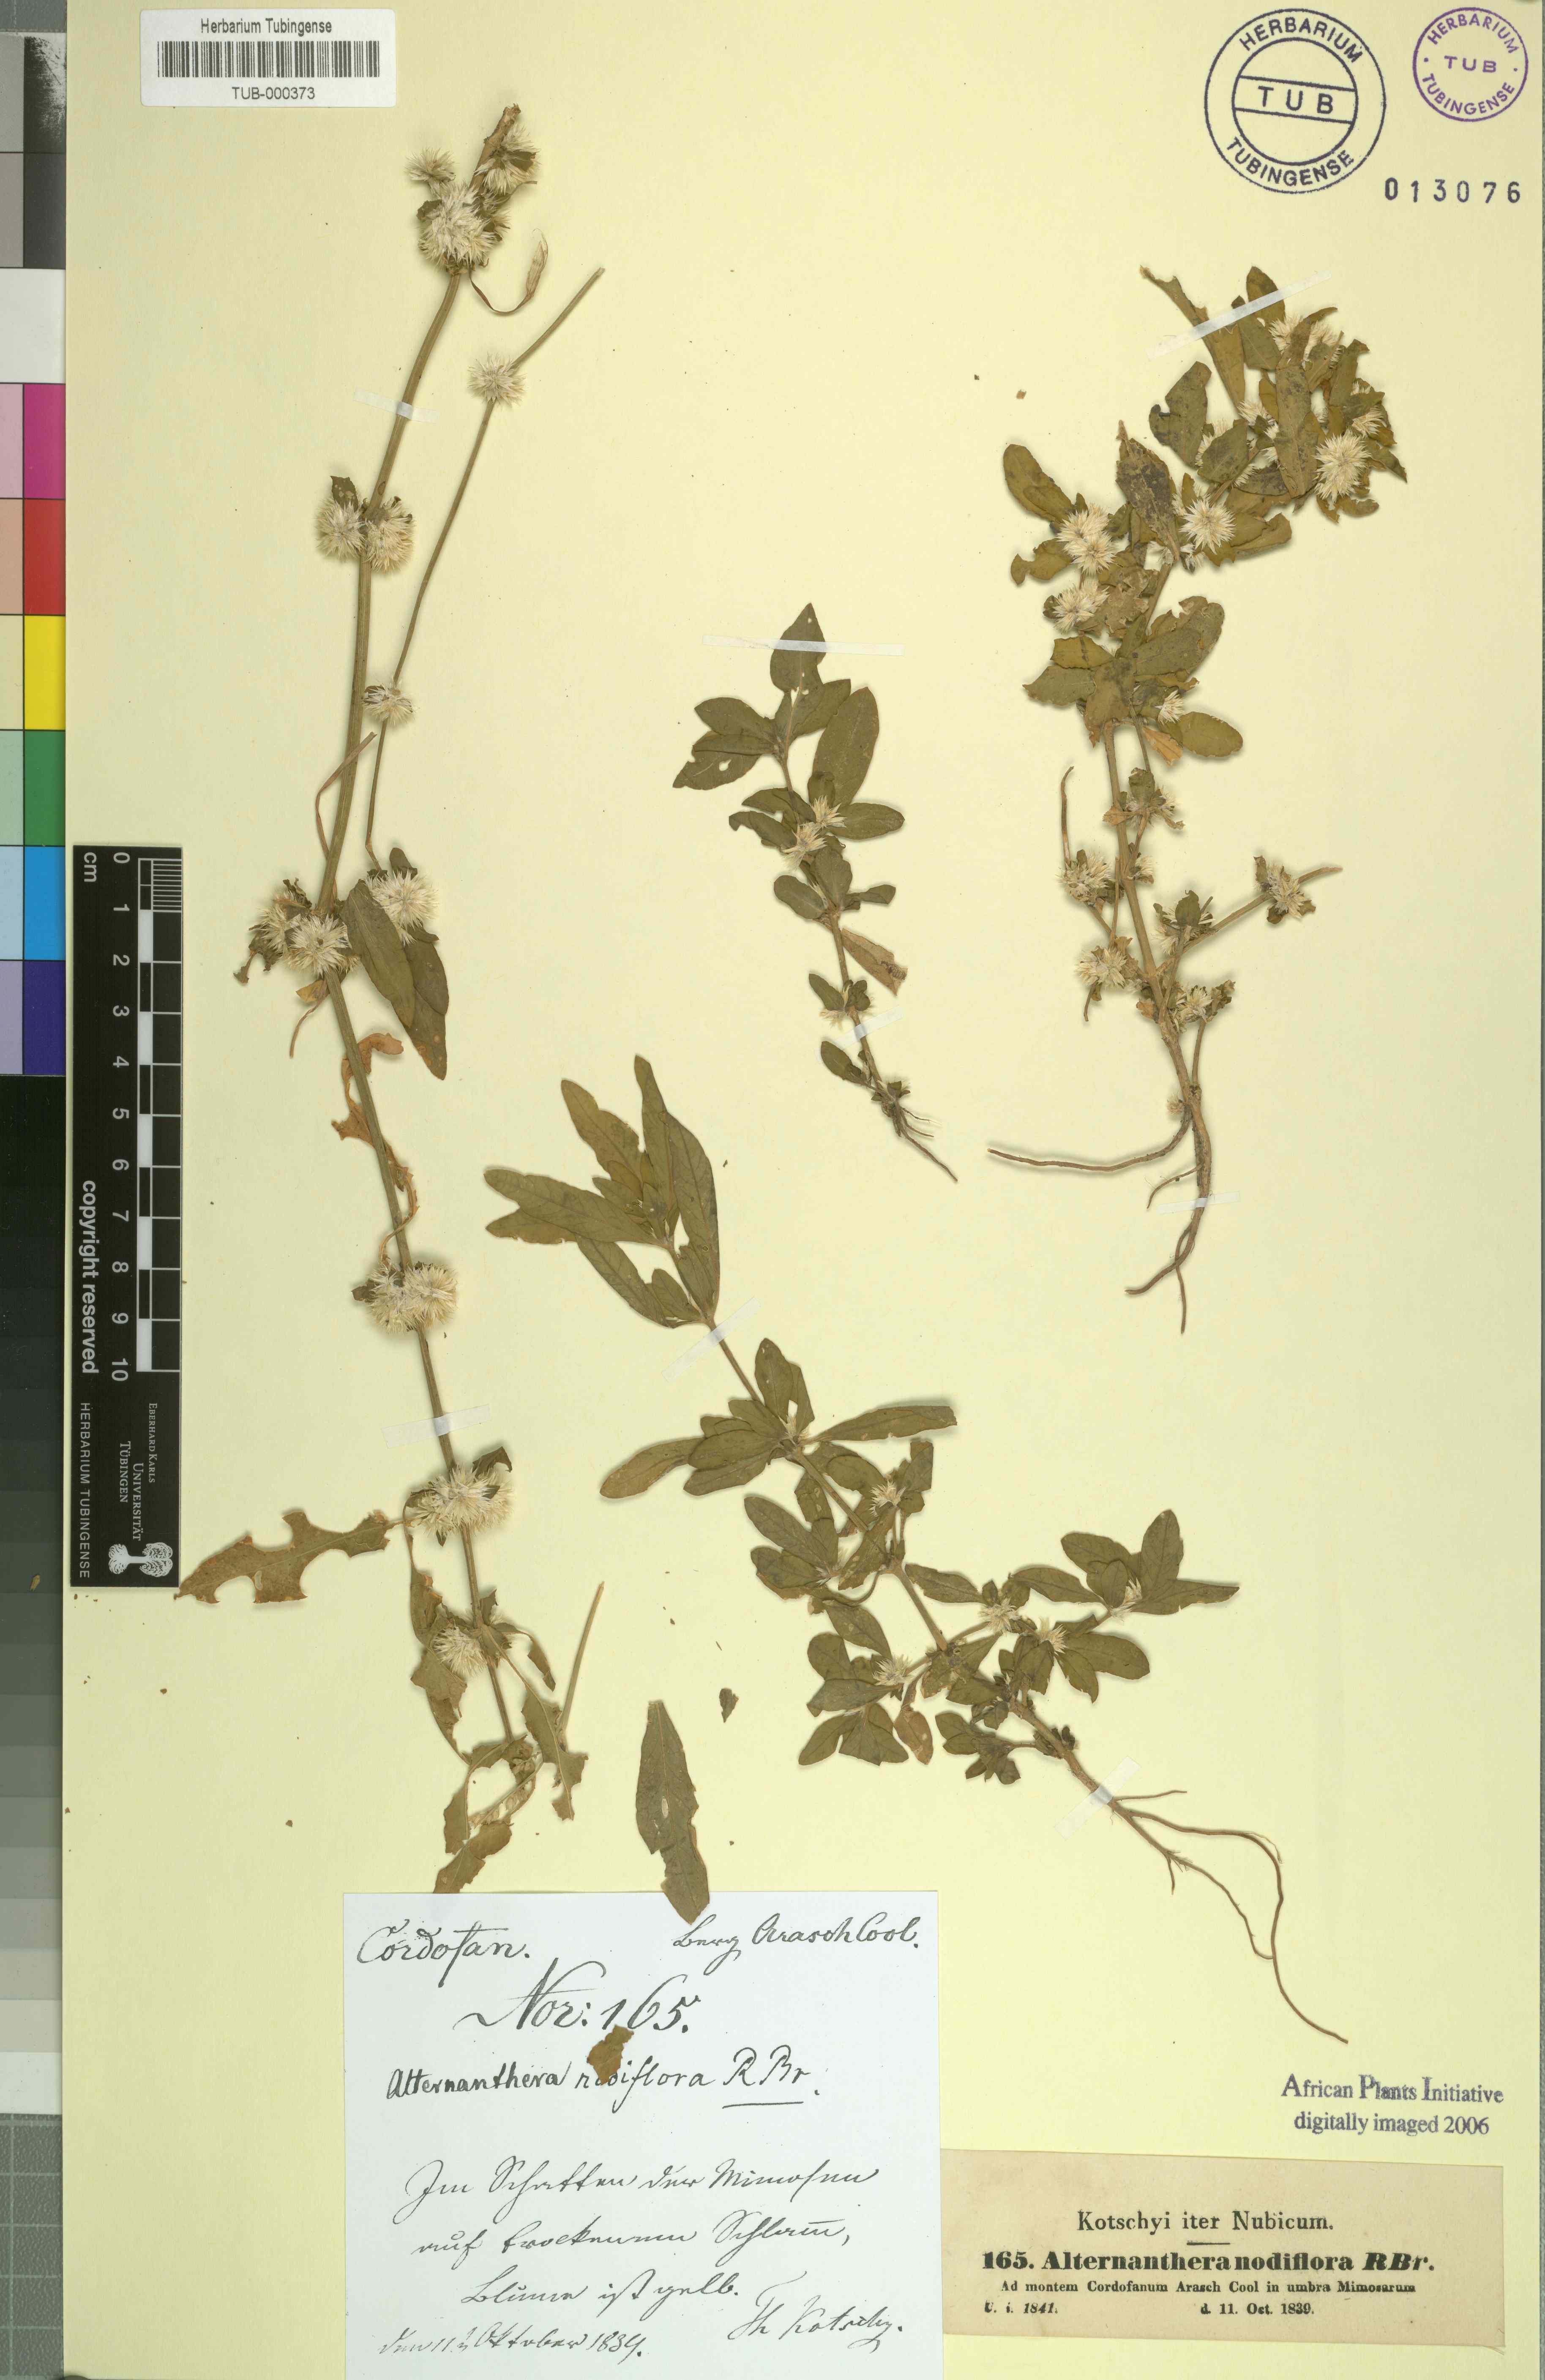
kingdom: Plantae
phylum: Tracheophyta
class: Magnoliopsida
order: Caryophyllales
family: Amaranthaceae
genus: Alternanthera
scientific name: Alternanthera sessilis
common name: Sessile joyweed
